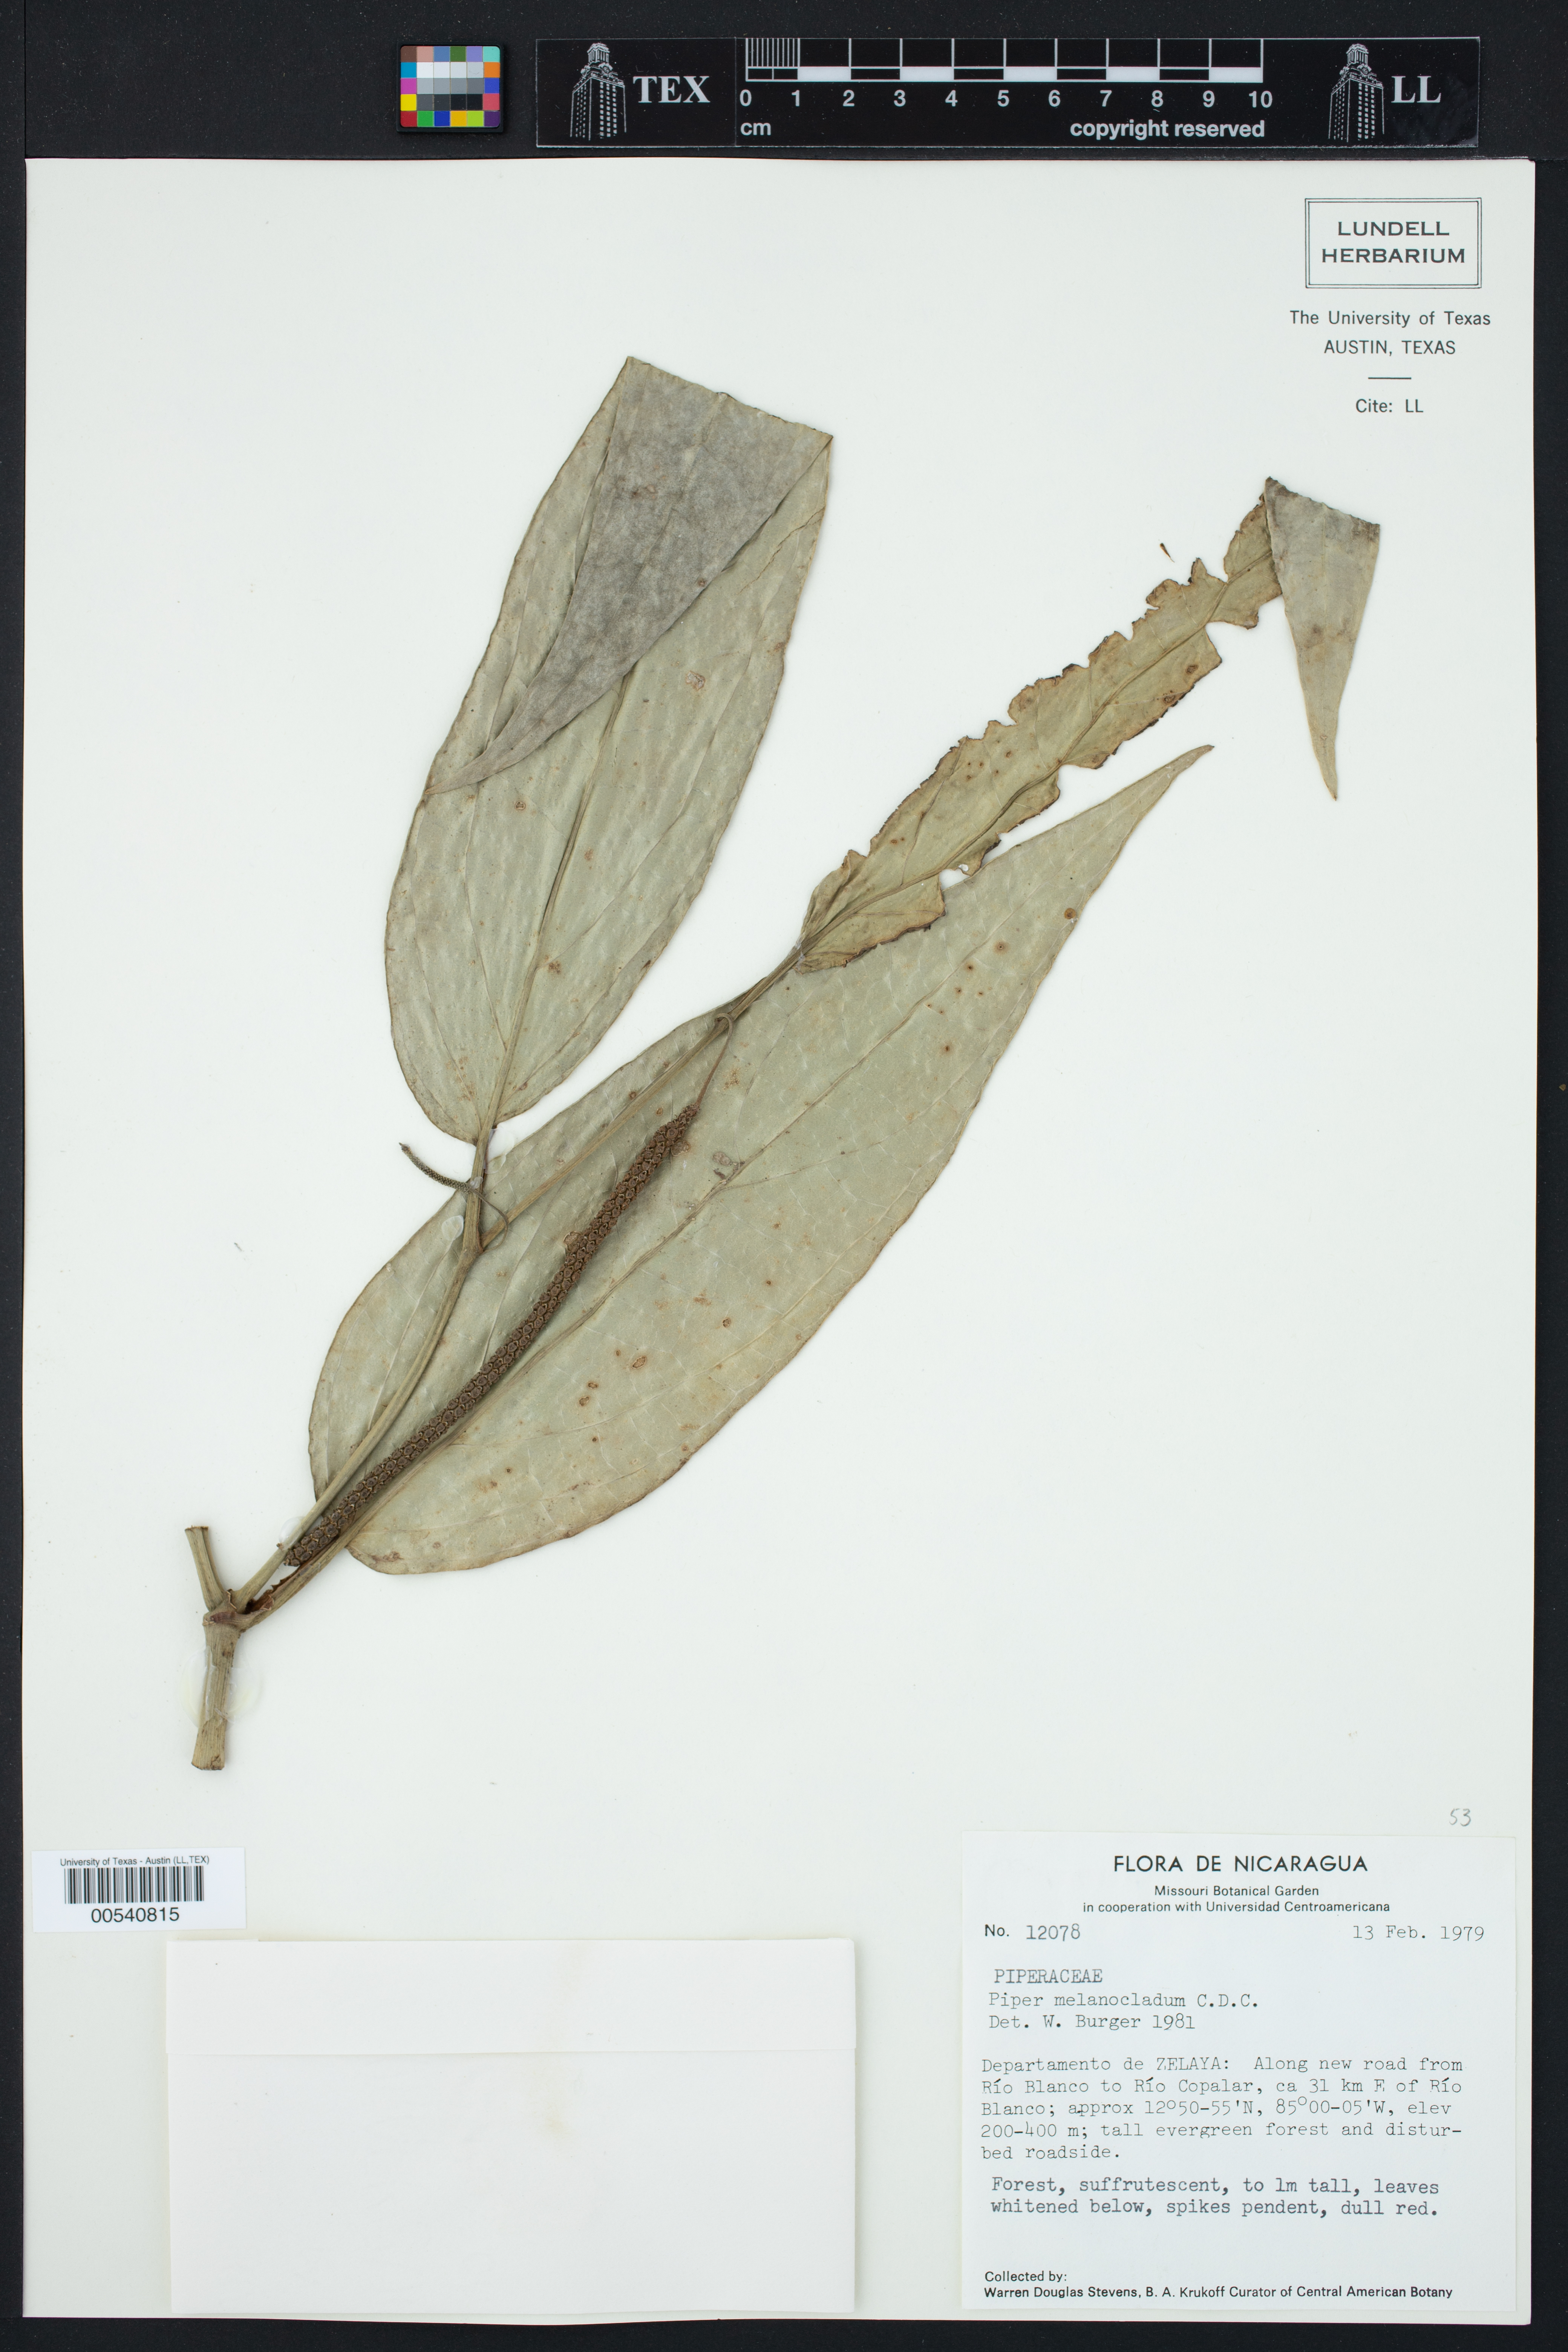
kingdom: Plantae
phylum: Tracheophyta
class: Magnoliopsida
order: Piperales
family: Piperaceae
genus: Piper
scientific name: Piper melanocladum
